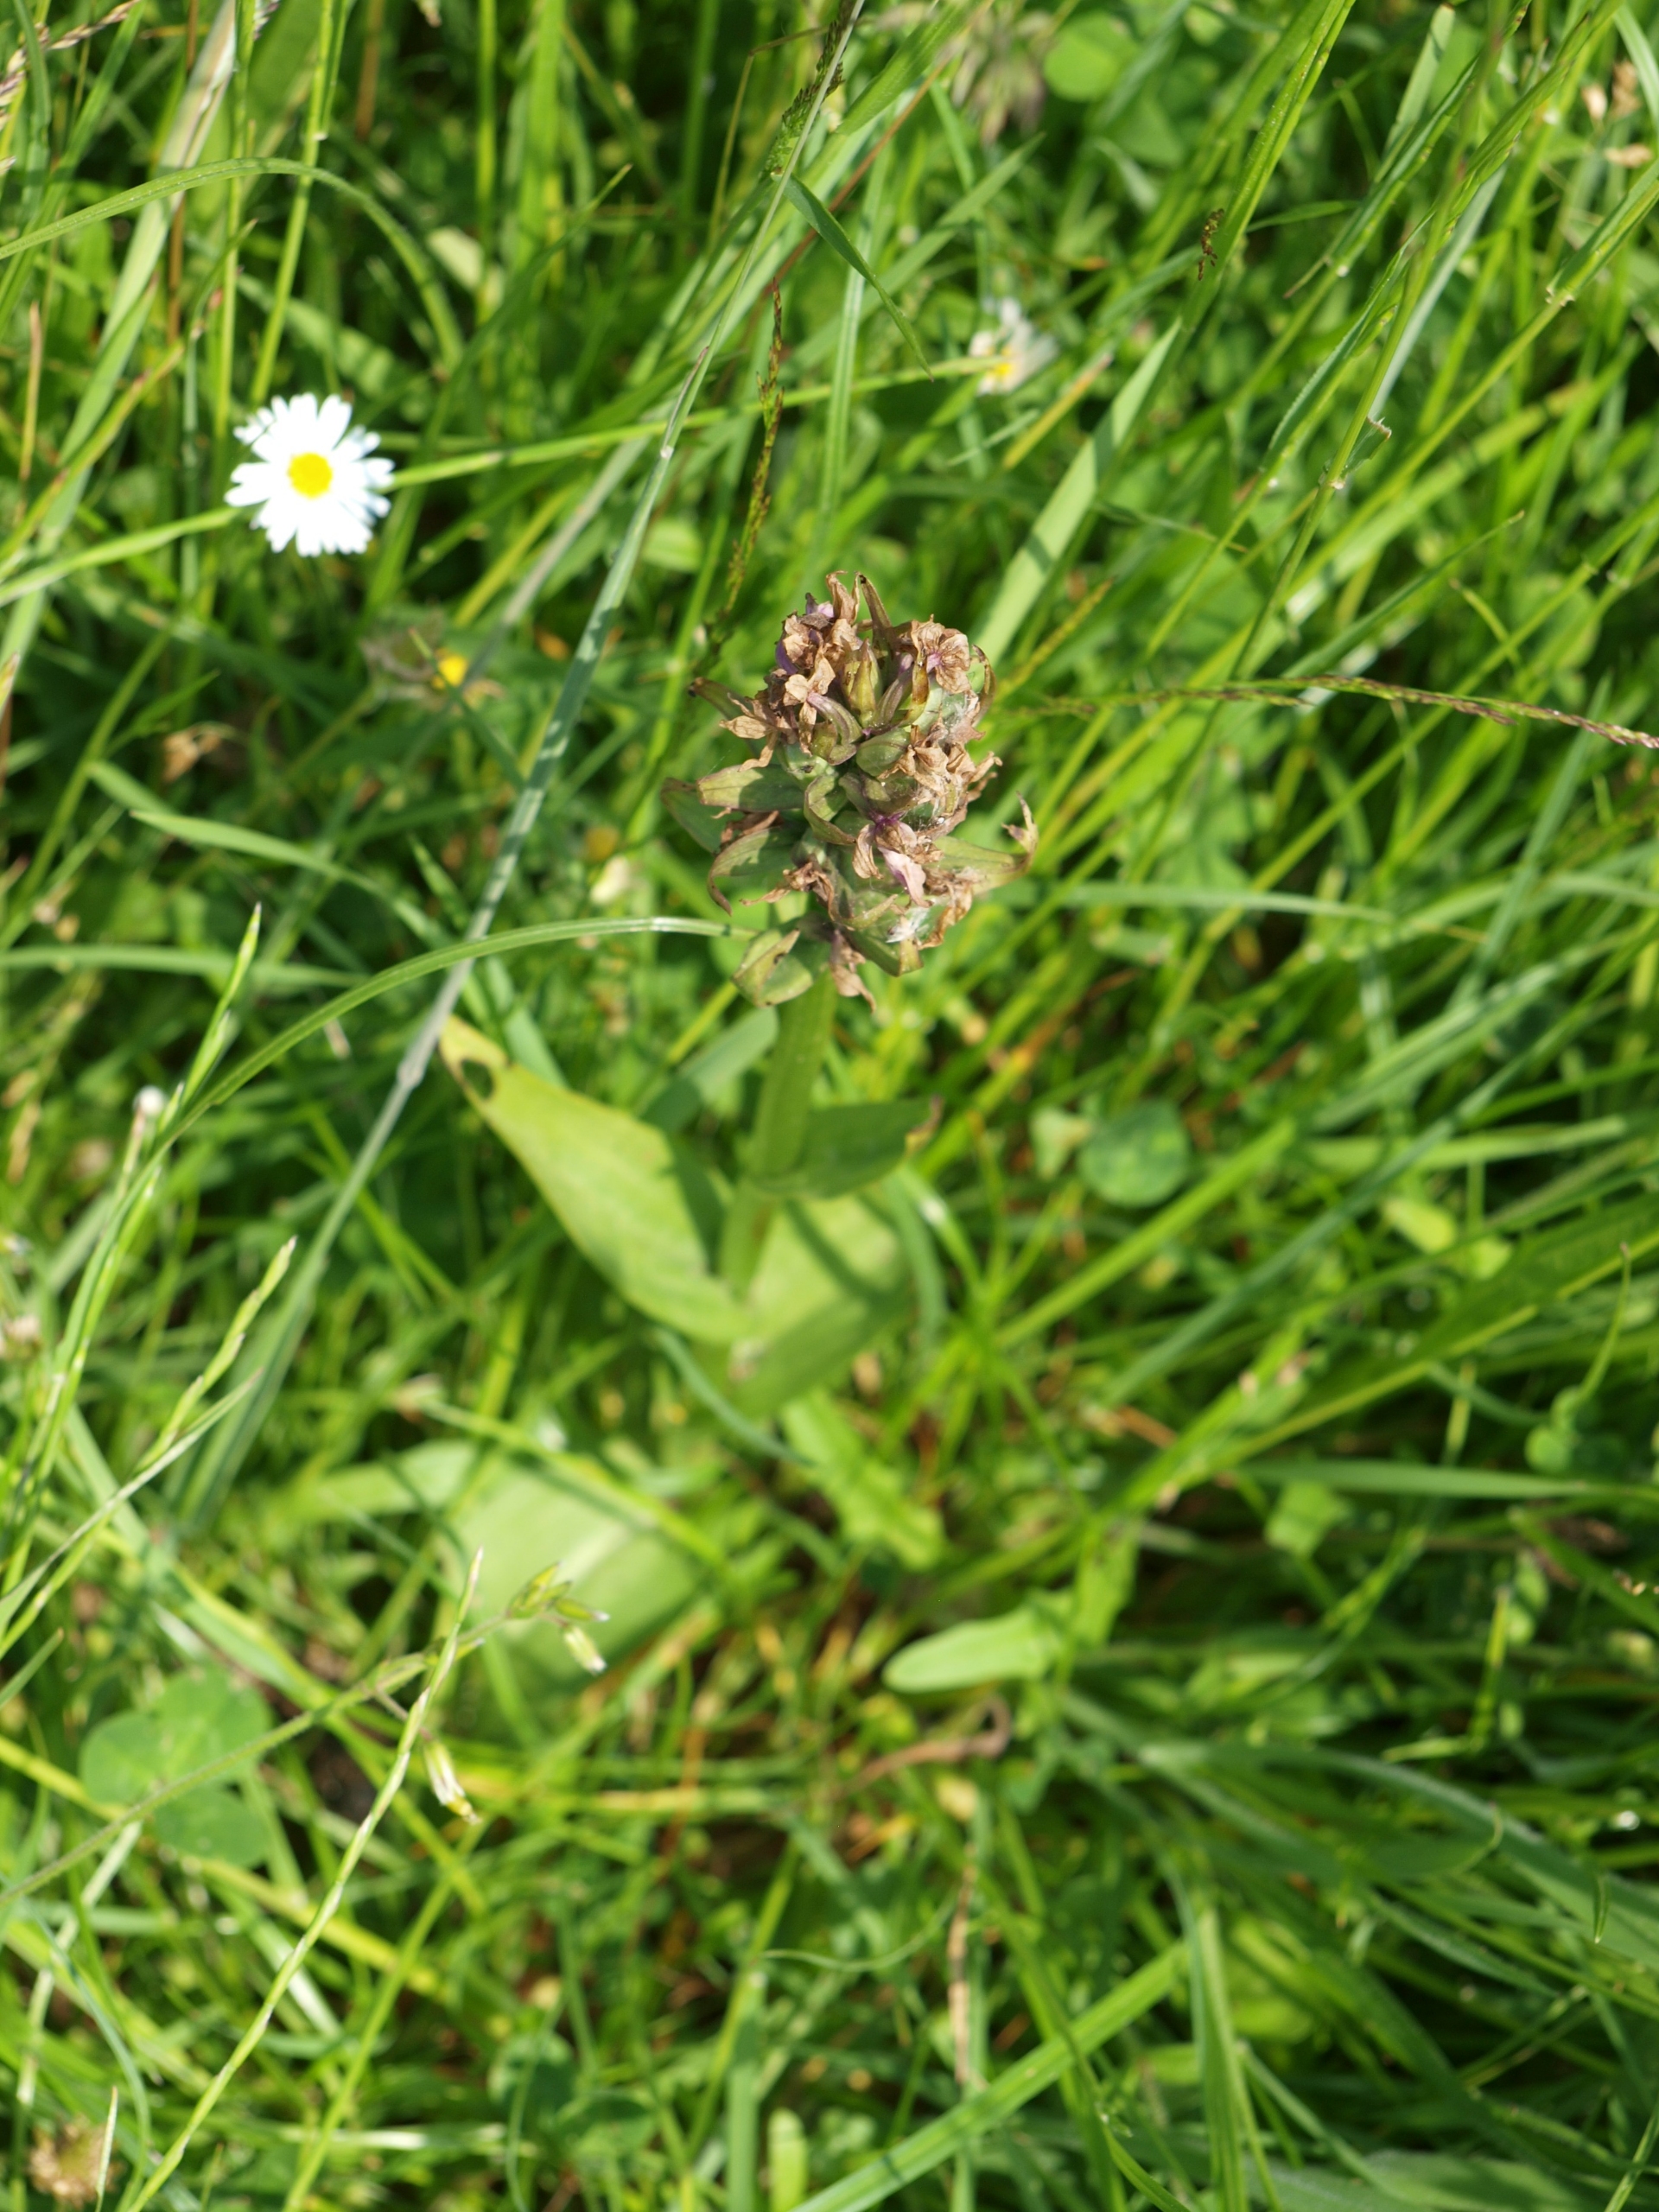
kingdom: Plantae
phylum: Tracheophyta
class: Liliopsida
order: Asparagales
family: Orchidaceae
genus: Dactylorhiza
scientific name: Dactylorhiza majalis
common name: Maj-gøgeurt
